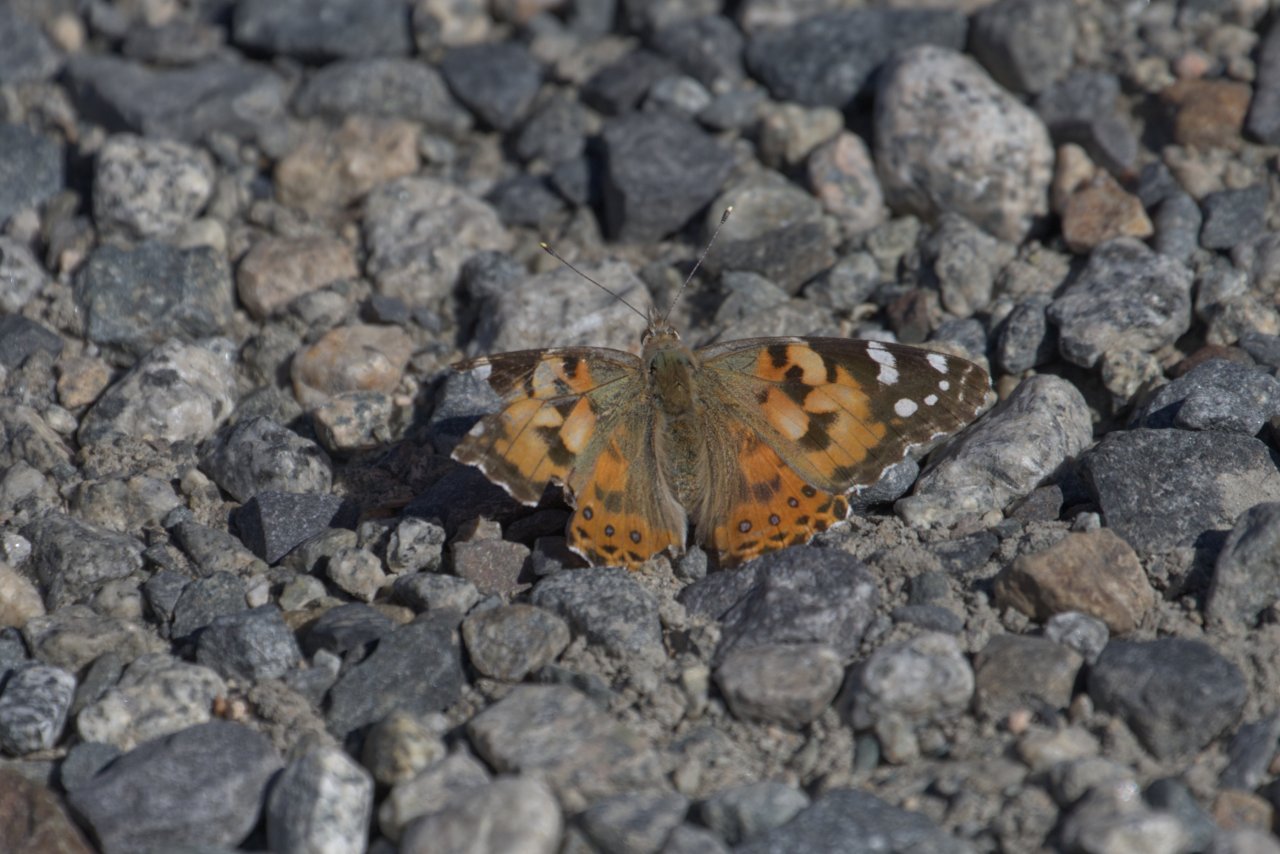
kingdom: Animalia
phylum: Arthropoda
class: Insecta
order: Lepidoptera
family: Nymphalidae
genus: Vanessa
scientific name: Vanessa cardui
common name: Painted Lady
